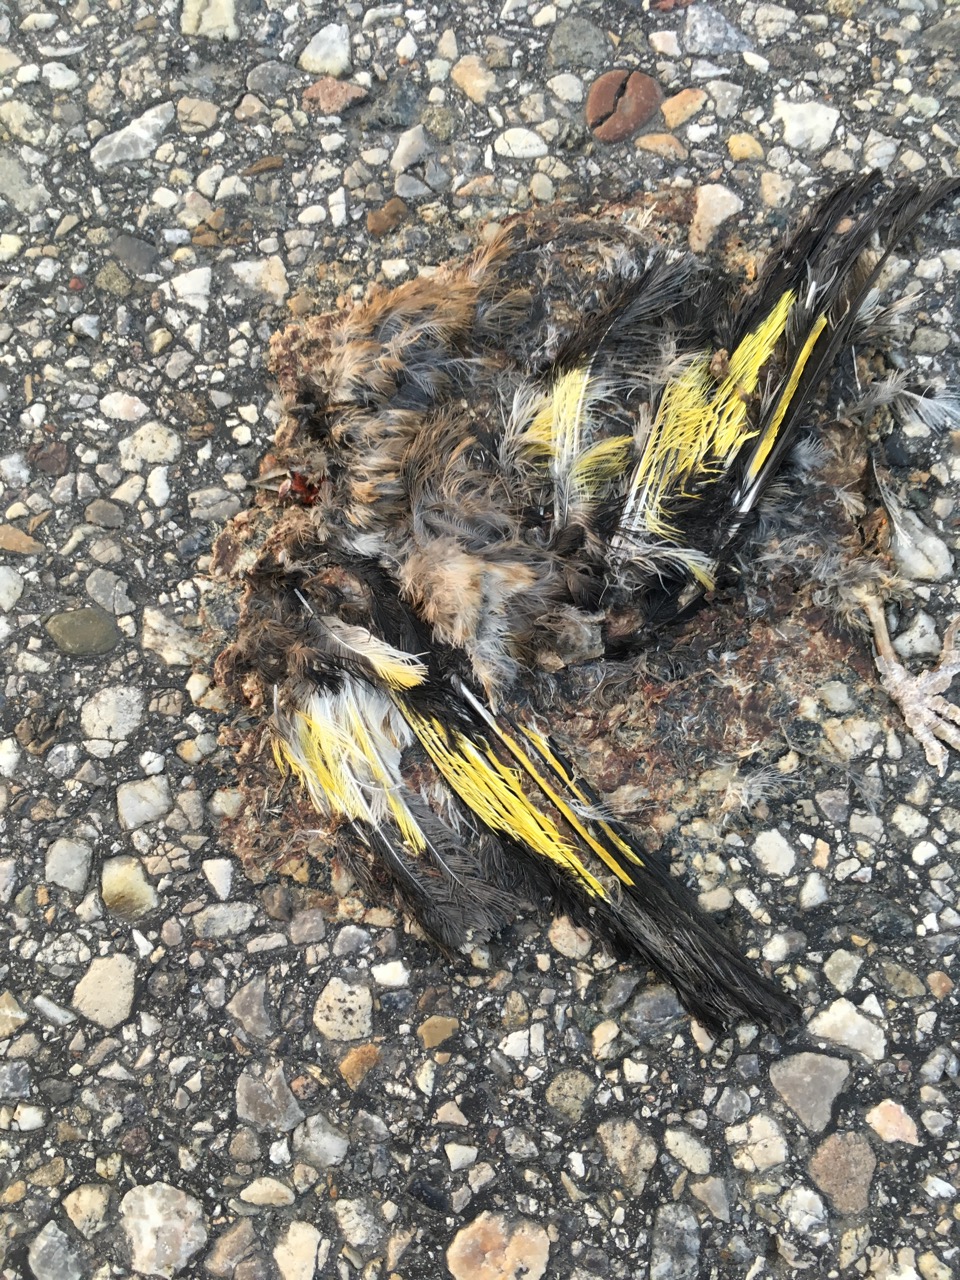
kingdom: Animalia
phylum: Chordata
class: Aves
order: Passeriformes
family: Fringillidae
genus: Carduelis
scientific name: Carduelis carduelis
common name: European goldfinch
